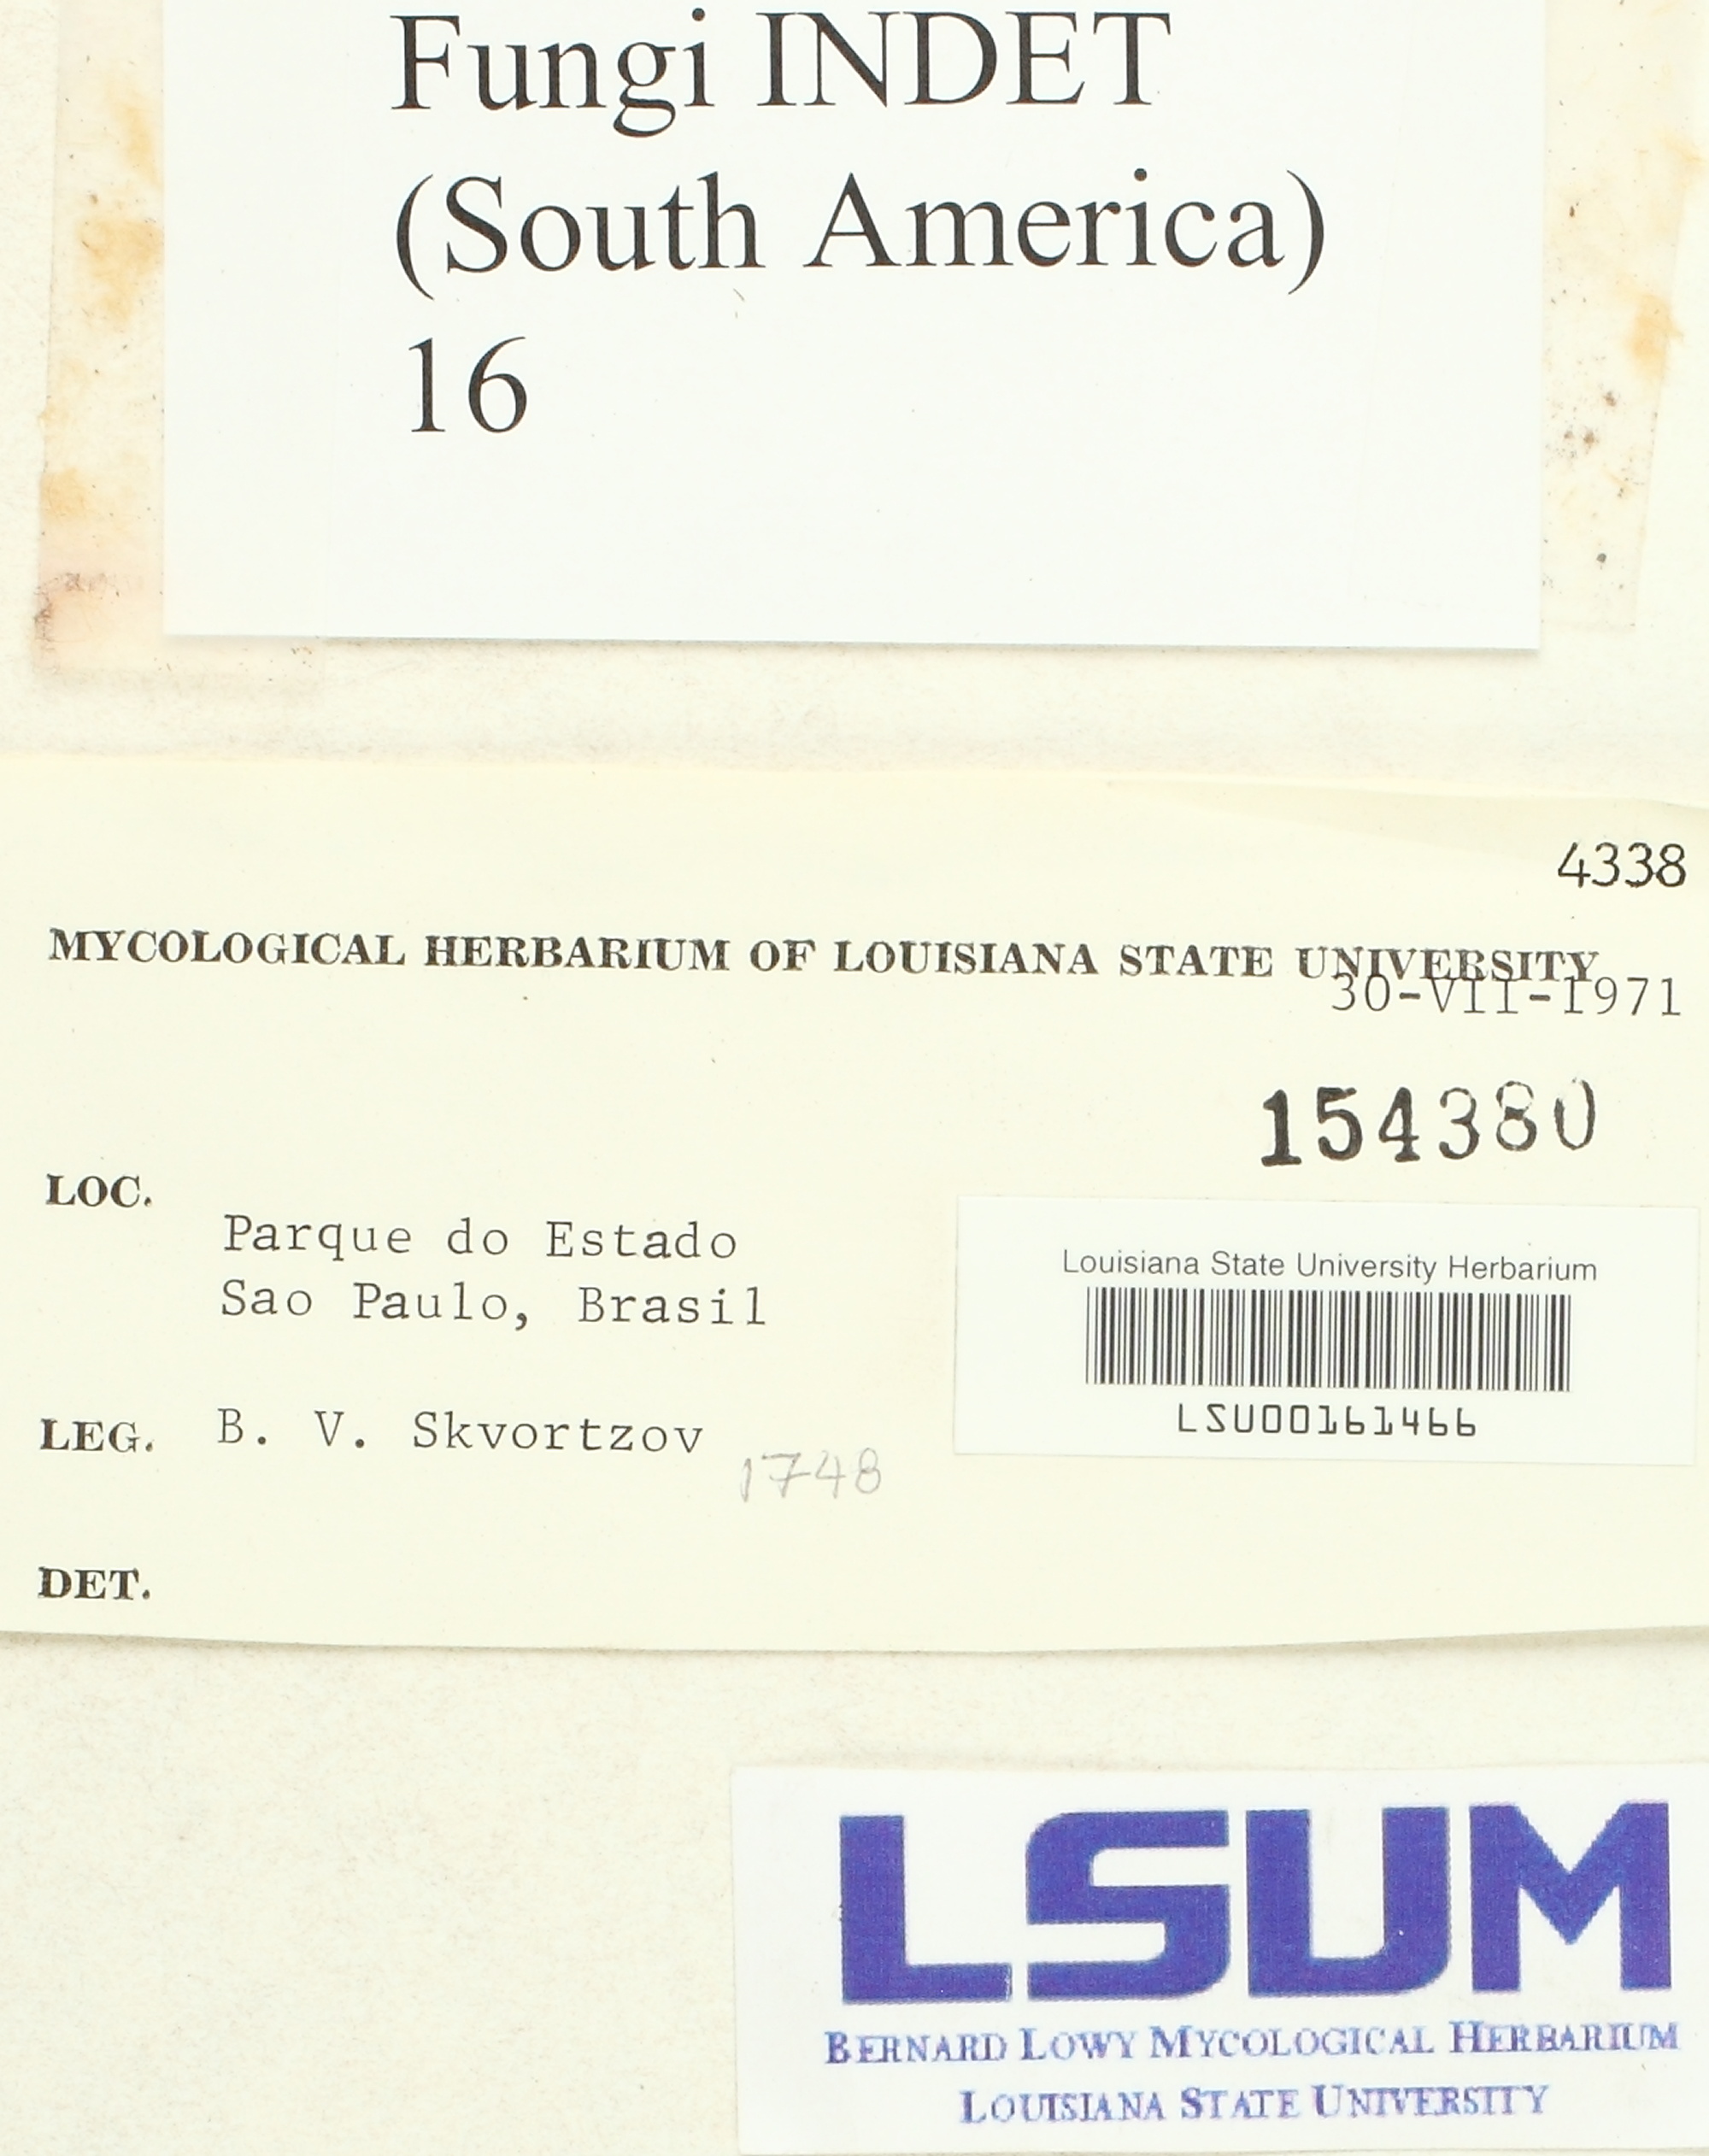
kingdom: Fungi
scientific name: Fungi
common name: Fungi
